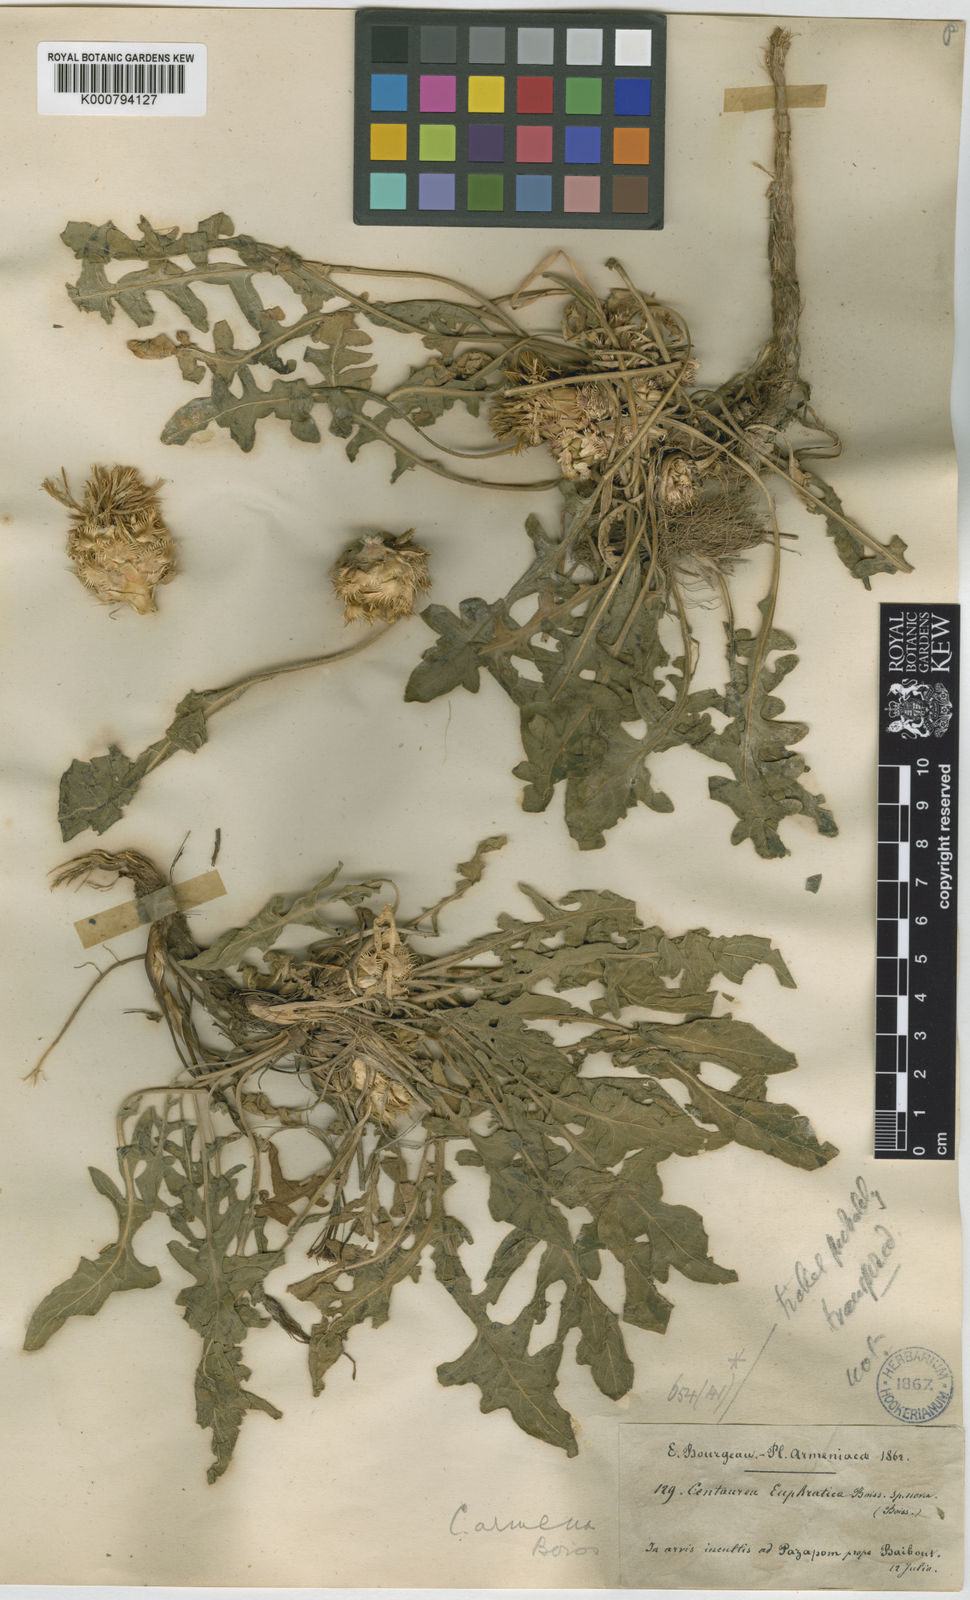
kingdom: Plantae
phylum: Tracheophyta
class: Magnoliopsida
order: Asterales
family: Asteraceae
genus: Centaurea
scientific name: Centaurea armena
